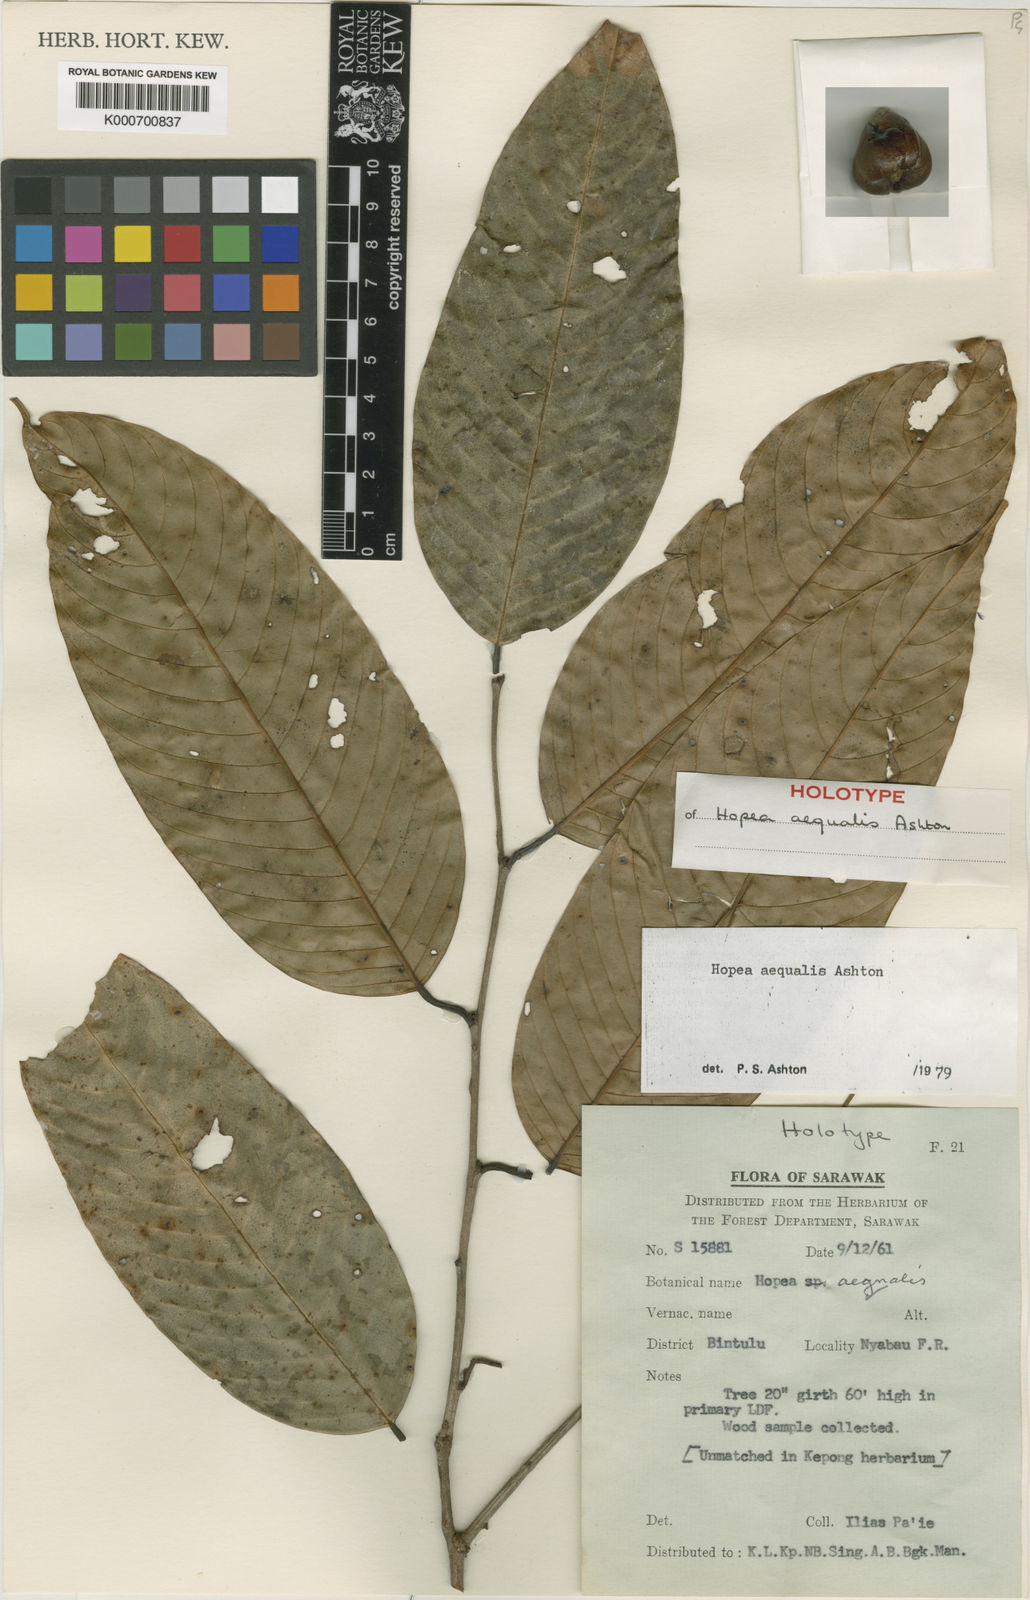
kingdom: Plantae
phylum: Tracheophyta
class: Magnoliopsida
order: Malvales
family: Dipterocarpaceae
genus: Hopea
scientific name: Hopea aequalis
